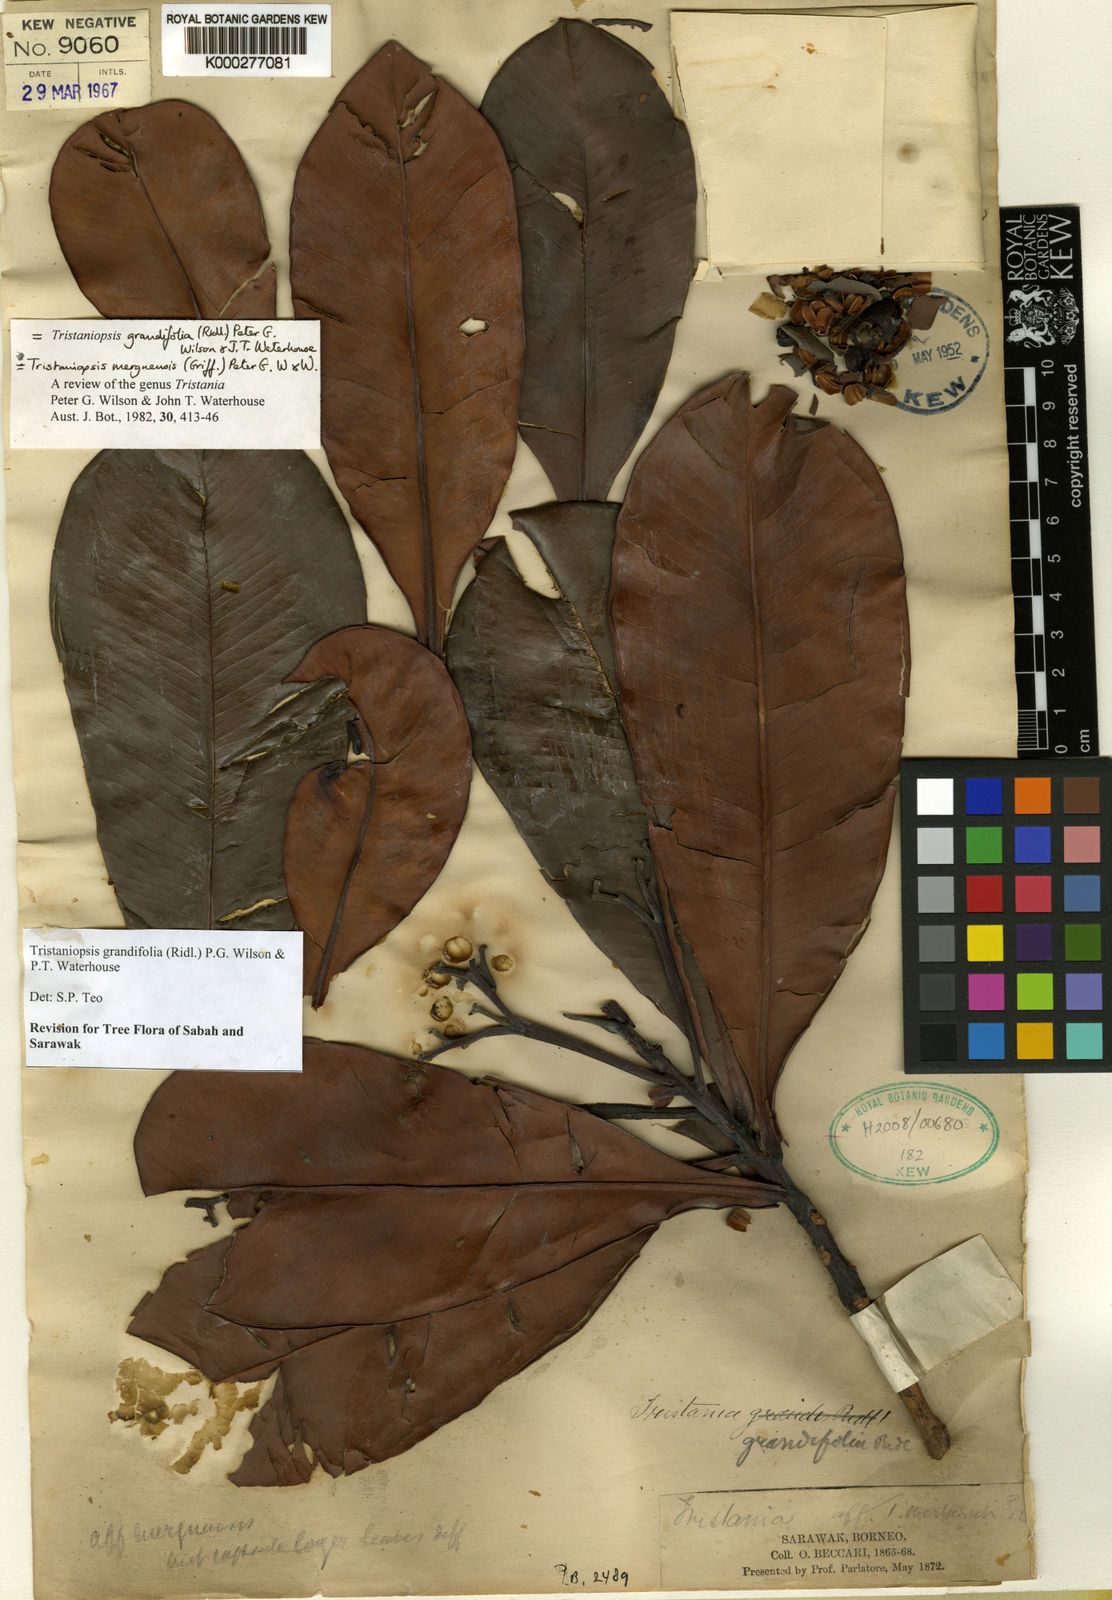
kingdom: Plantae
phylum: Tracheophyta
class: Magnoliopsida
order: Myrtales
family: Myrtaceae
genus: Tristaniopsis
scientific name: Tristaniopsis merguensis
